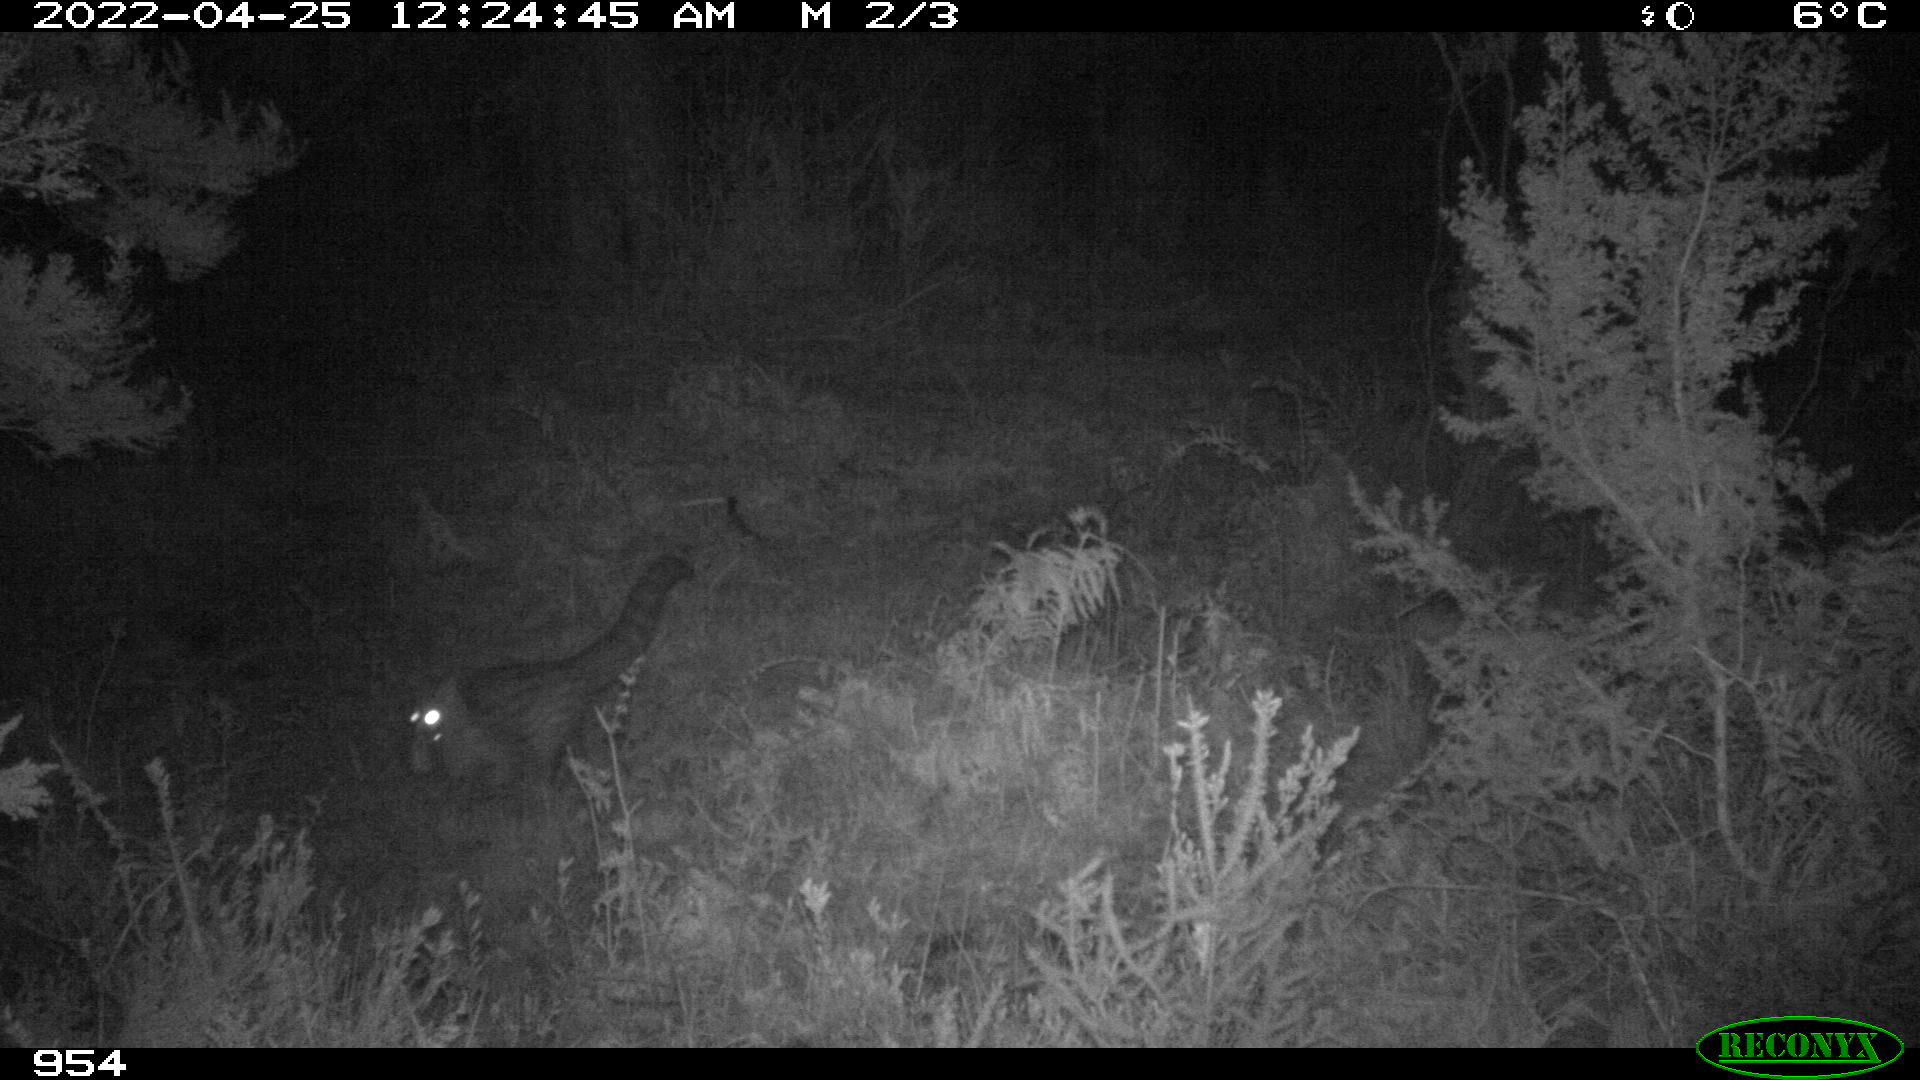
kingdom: Animalia
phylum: Chordata
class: Mammalia
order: Carnivora
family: Viverridae
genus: Genetta
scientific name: Genetta genetta
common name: Common genet
